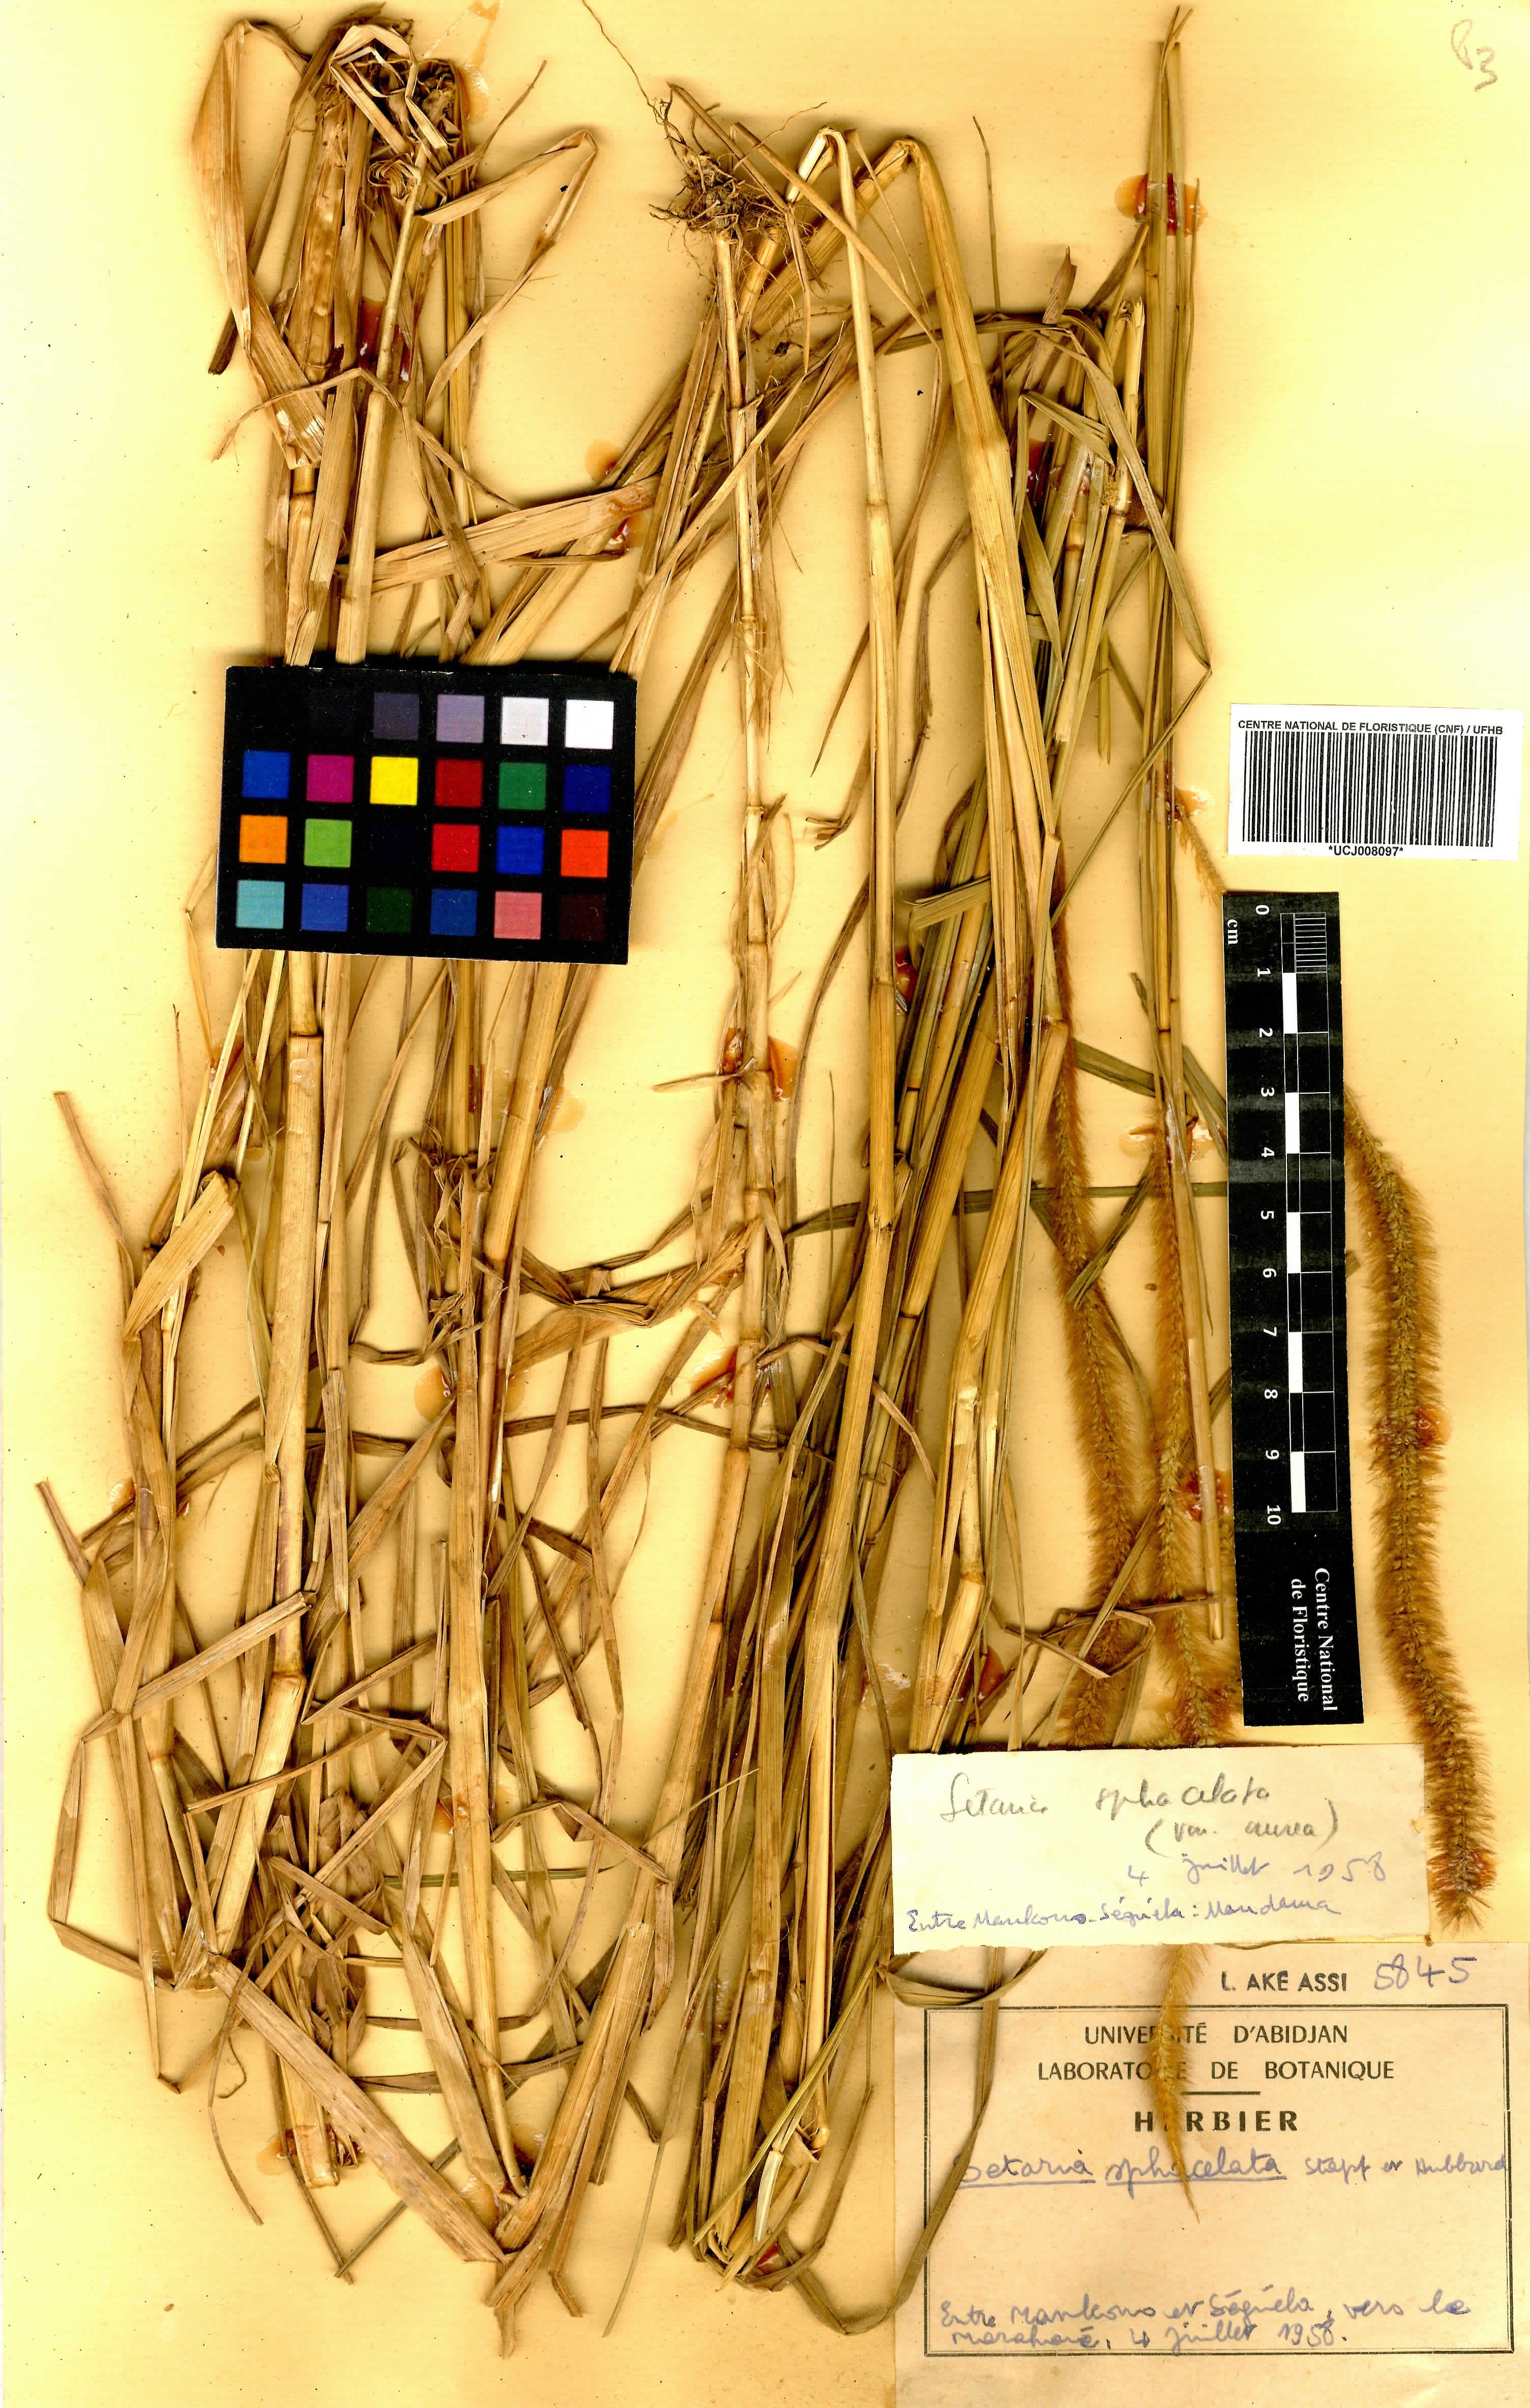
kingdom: Plantae
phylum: Tracheophyta
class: Liliopsida
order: Poales
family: Poaceae
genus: Setaria
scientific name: Setaria sphacelata
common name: African bristlegrass
